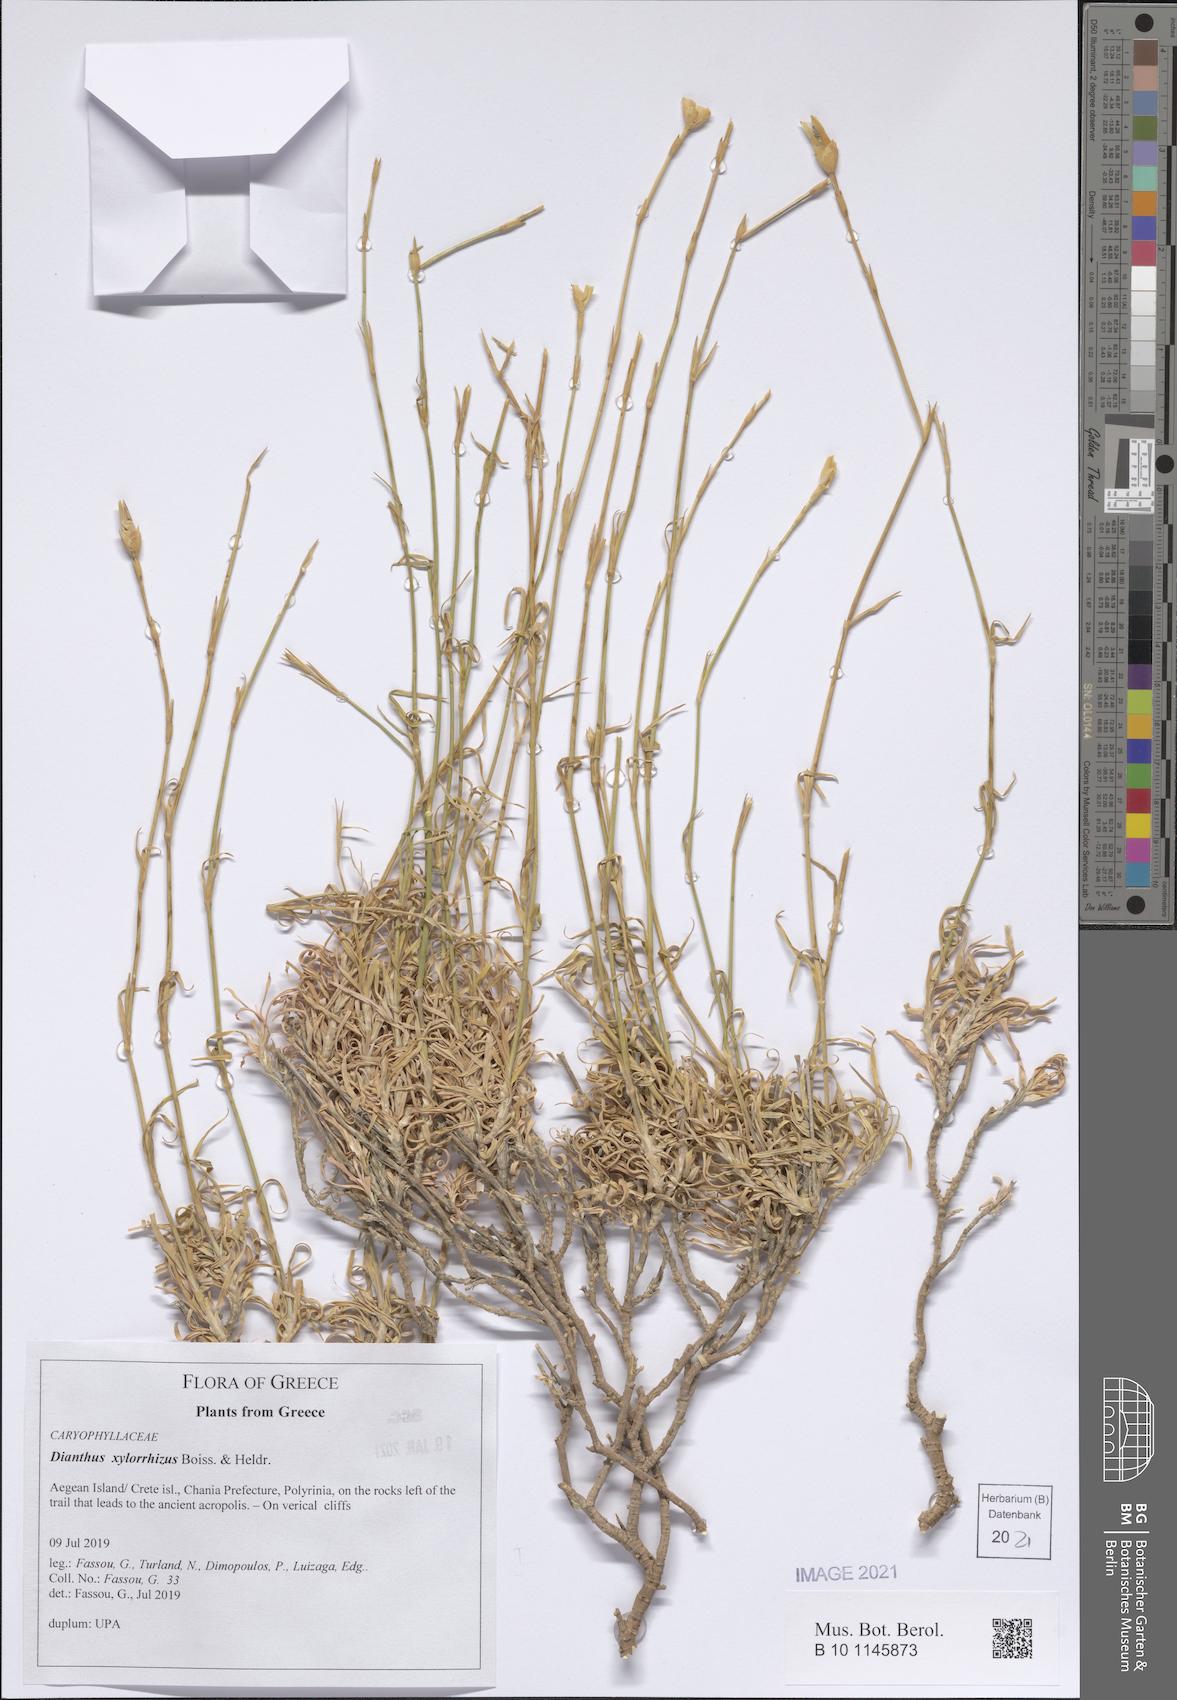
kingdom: Plantae
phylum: Tracheophyta
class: Magnoliopsida
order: Caryophyllales
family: Caryophyllaceae
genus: Dianthus
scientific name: Dianthus xylorrhizus
